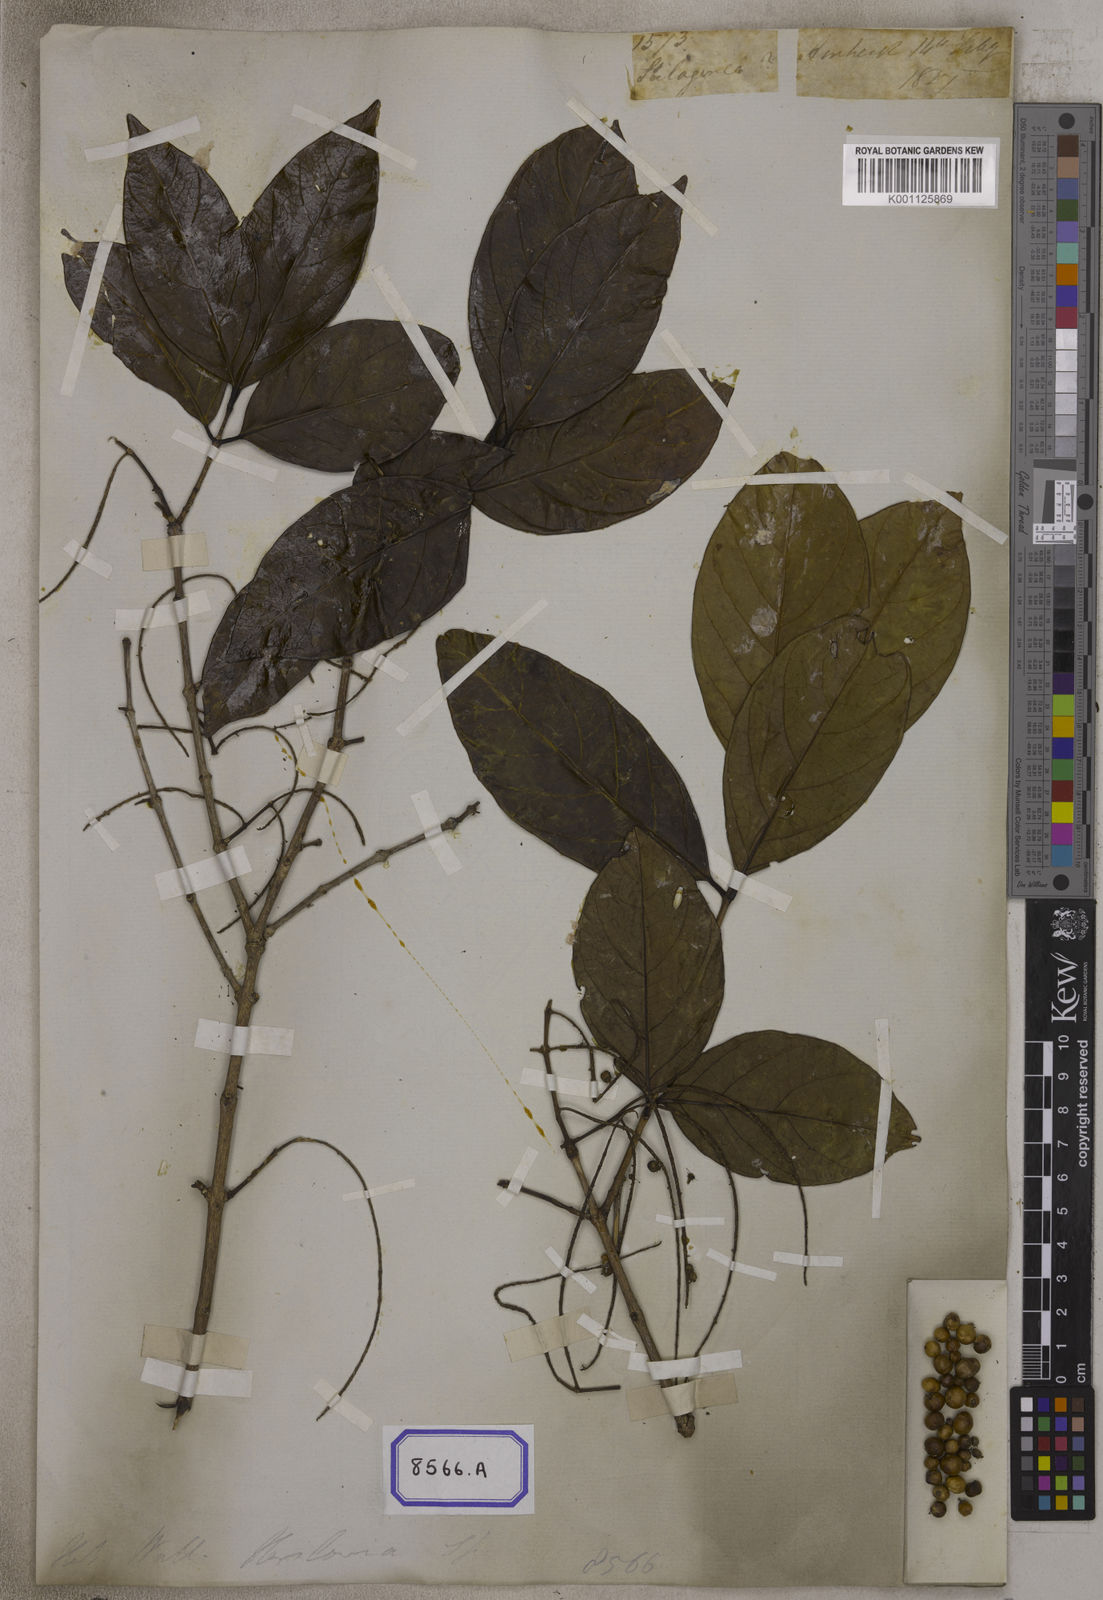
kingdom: Plantae
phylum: Tracheophyta
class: Magnoliopsida
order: Myrtales
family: Crypteroniaceae
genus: Crypteronia
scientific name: Crypteronia paniculata
